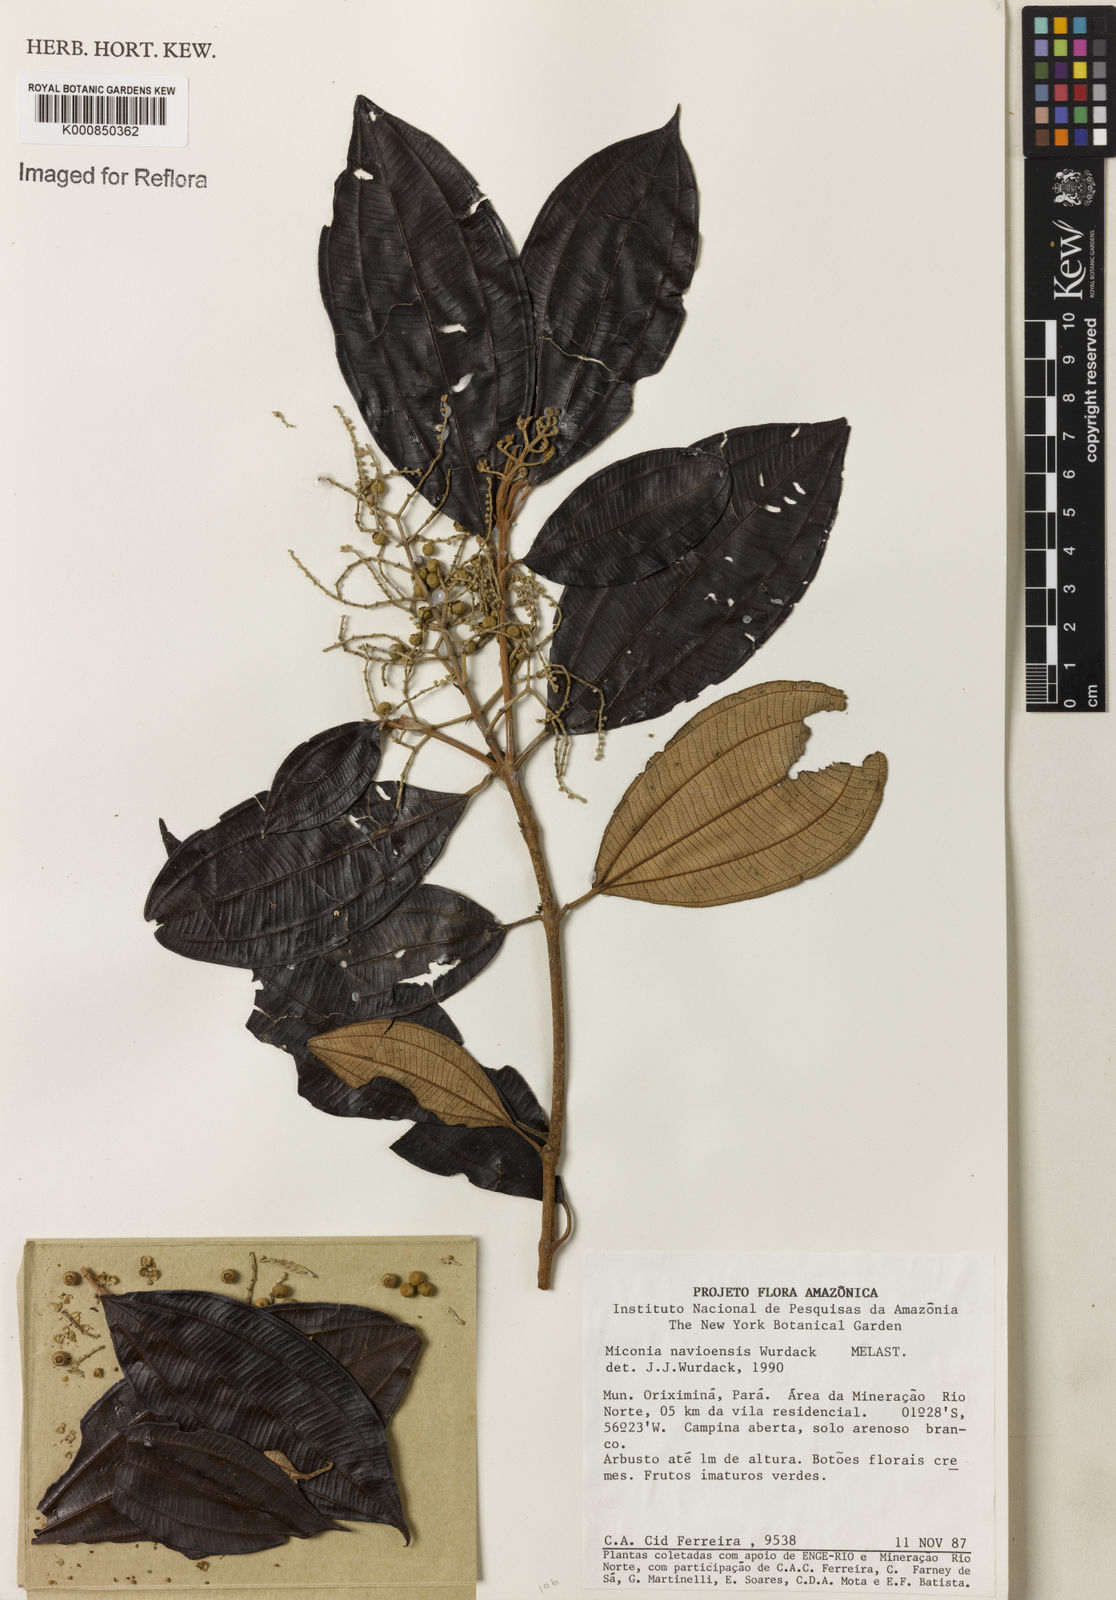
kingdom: Plantae
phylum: Tracheophyta
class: Magnoliopsida
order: Myrtales
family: Melastomataceae
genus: Miconia
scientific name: Miconia navioensis
